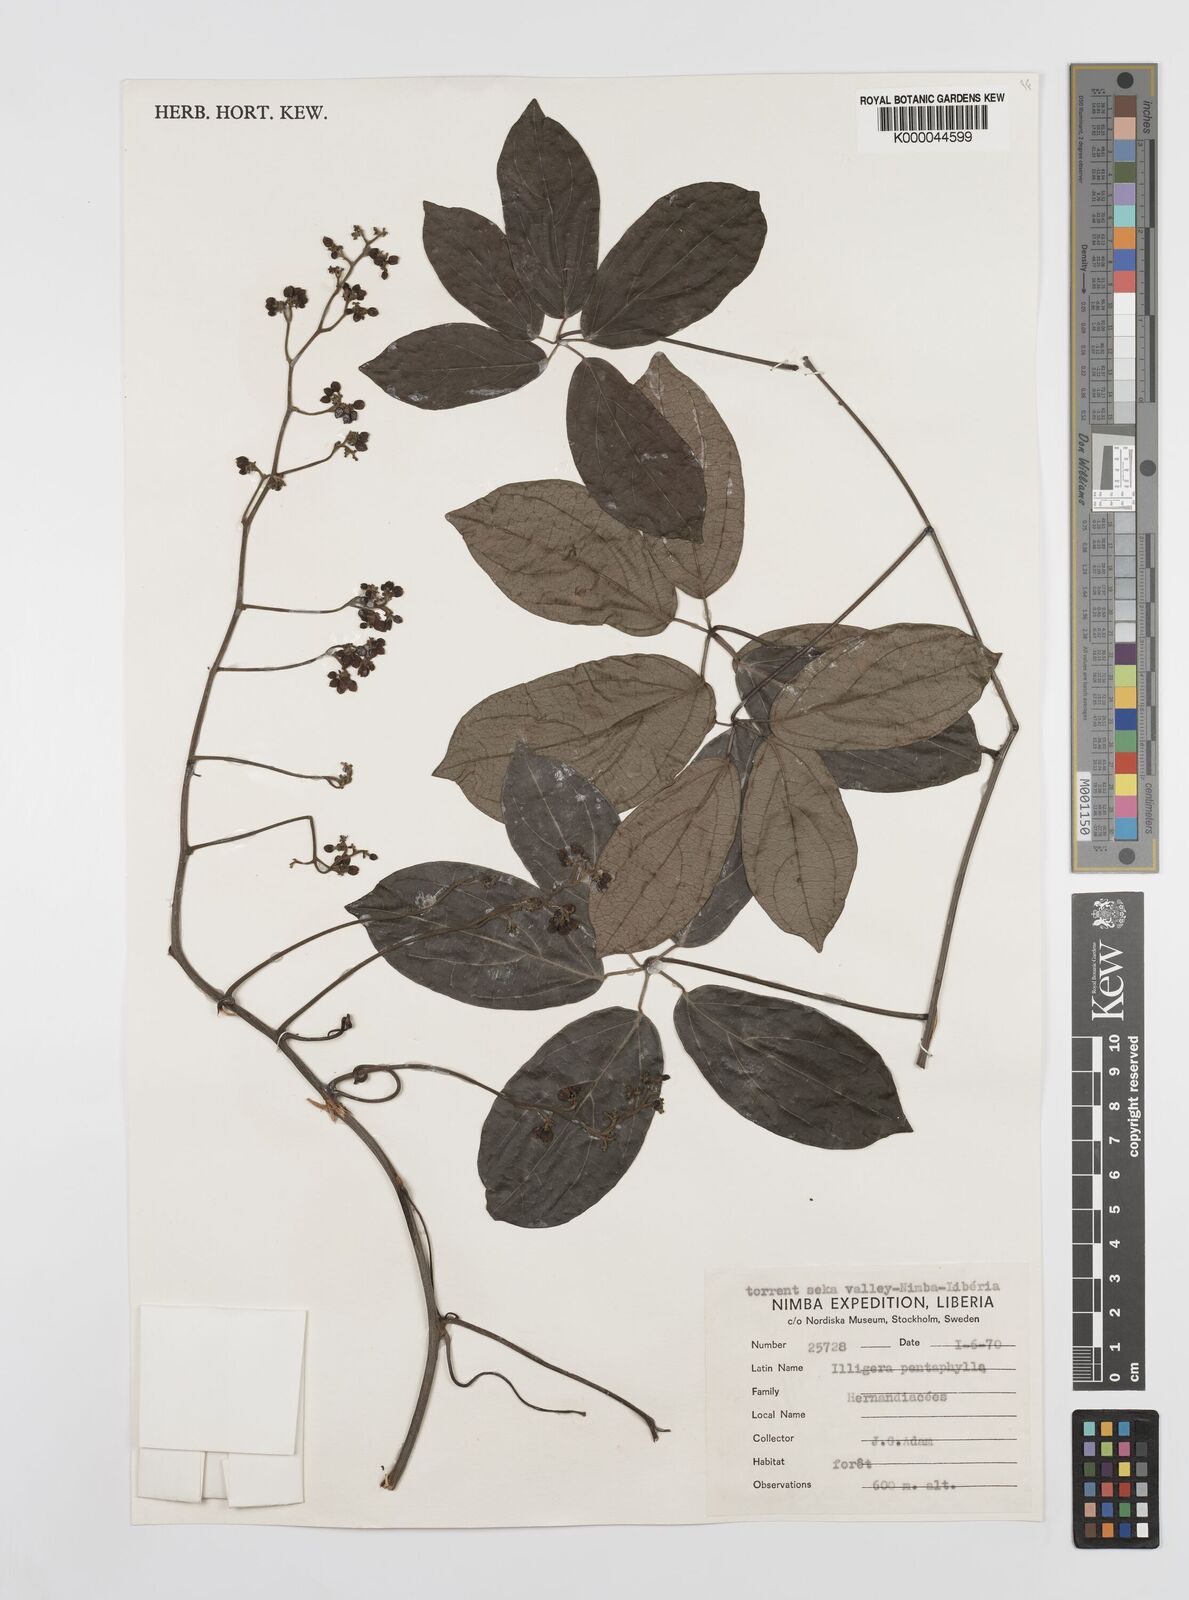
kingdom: Plantae
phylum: Tracheophyta
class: Magnoliopsida
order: Laurales
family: Hernandiaceae
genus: Illigera
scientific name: Illigera pentaphylla
